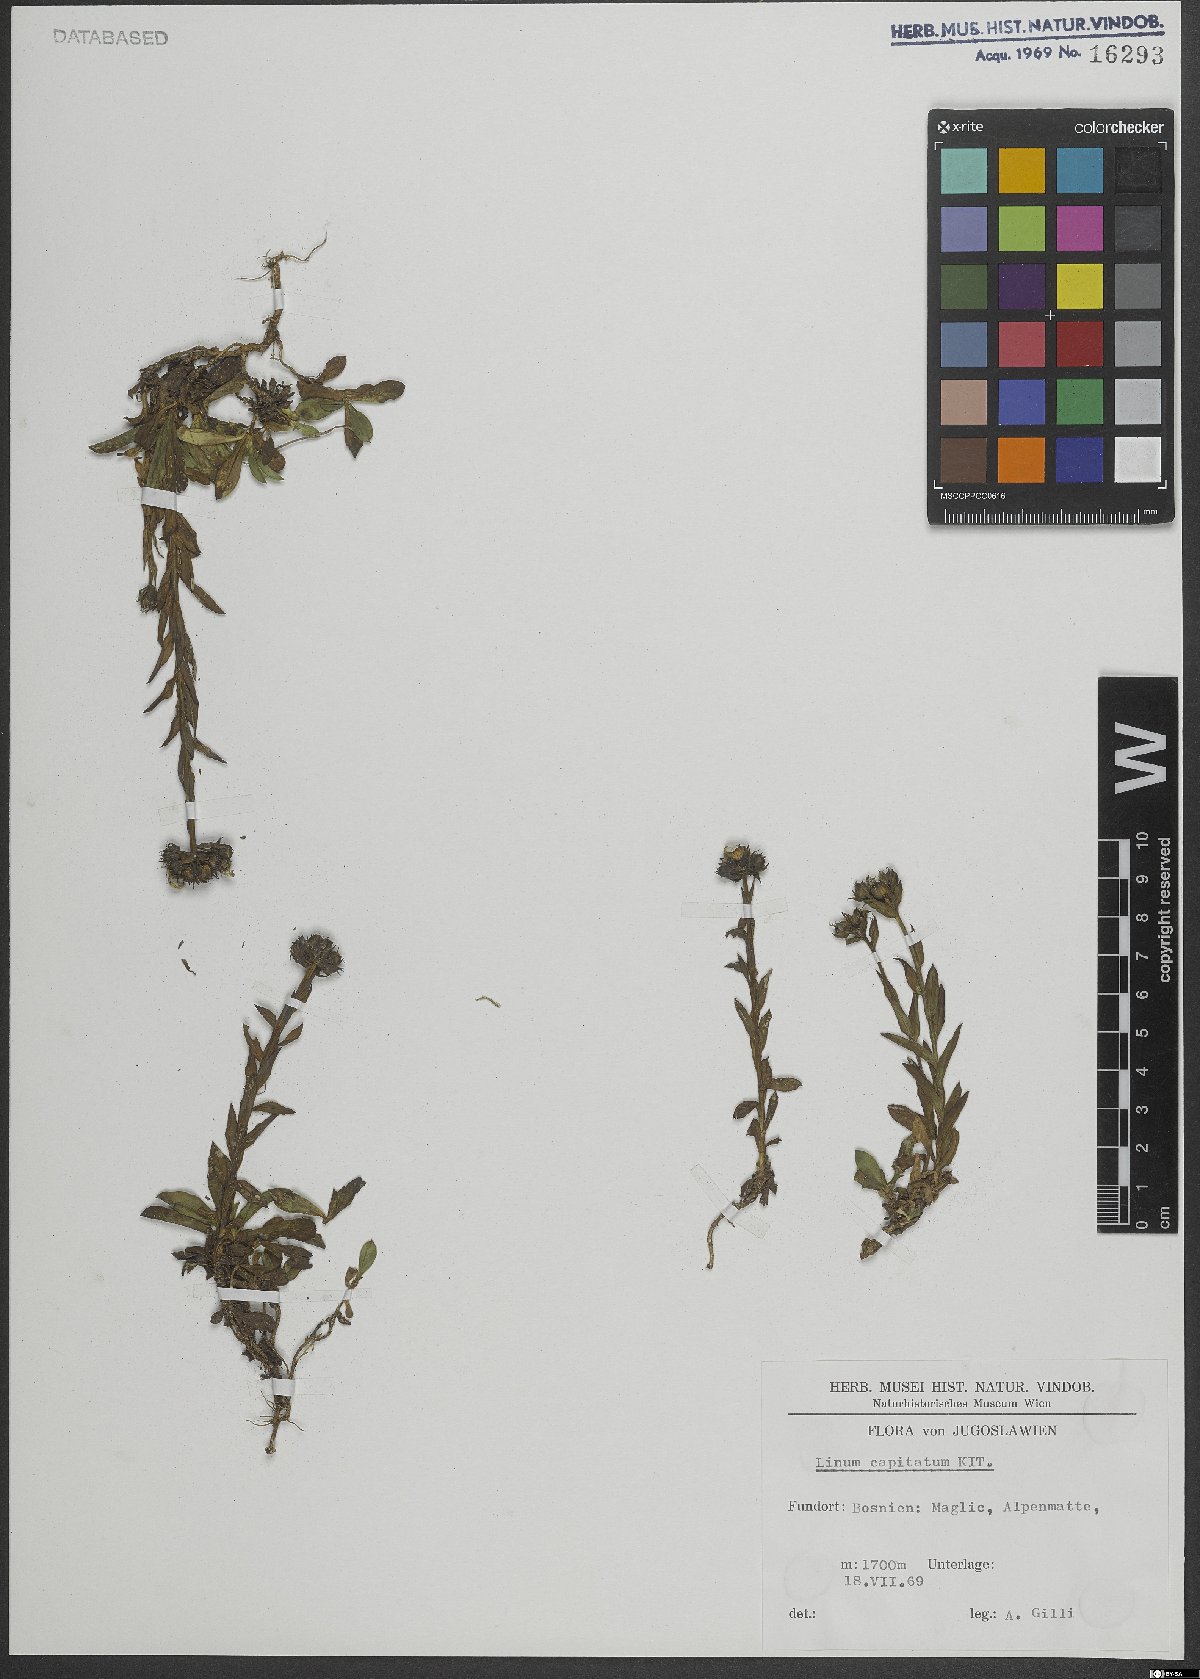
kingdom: Plantae
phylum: Tracheophyta
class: Magnoliopsida
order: Malpighiales
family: Linaceae
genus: Linum
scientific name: Linum capitatum
